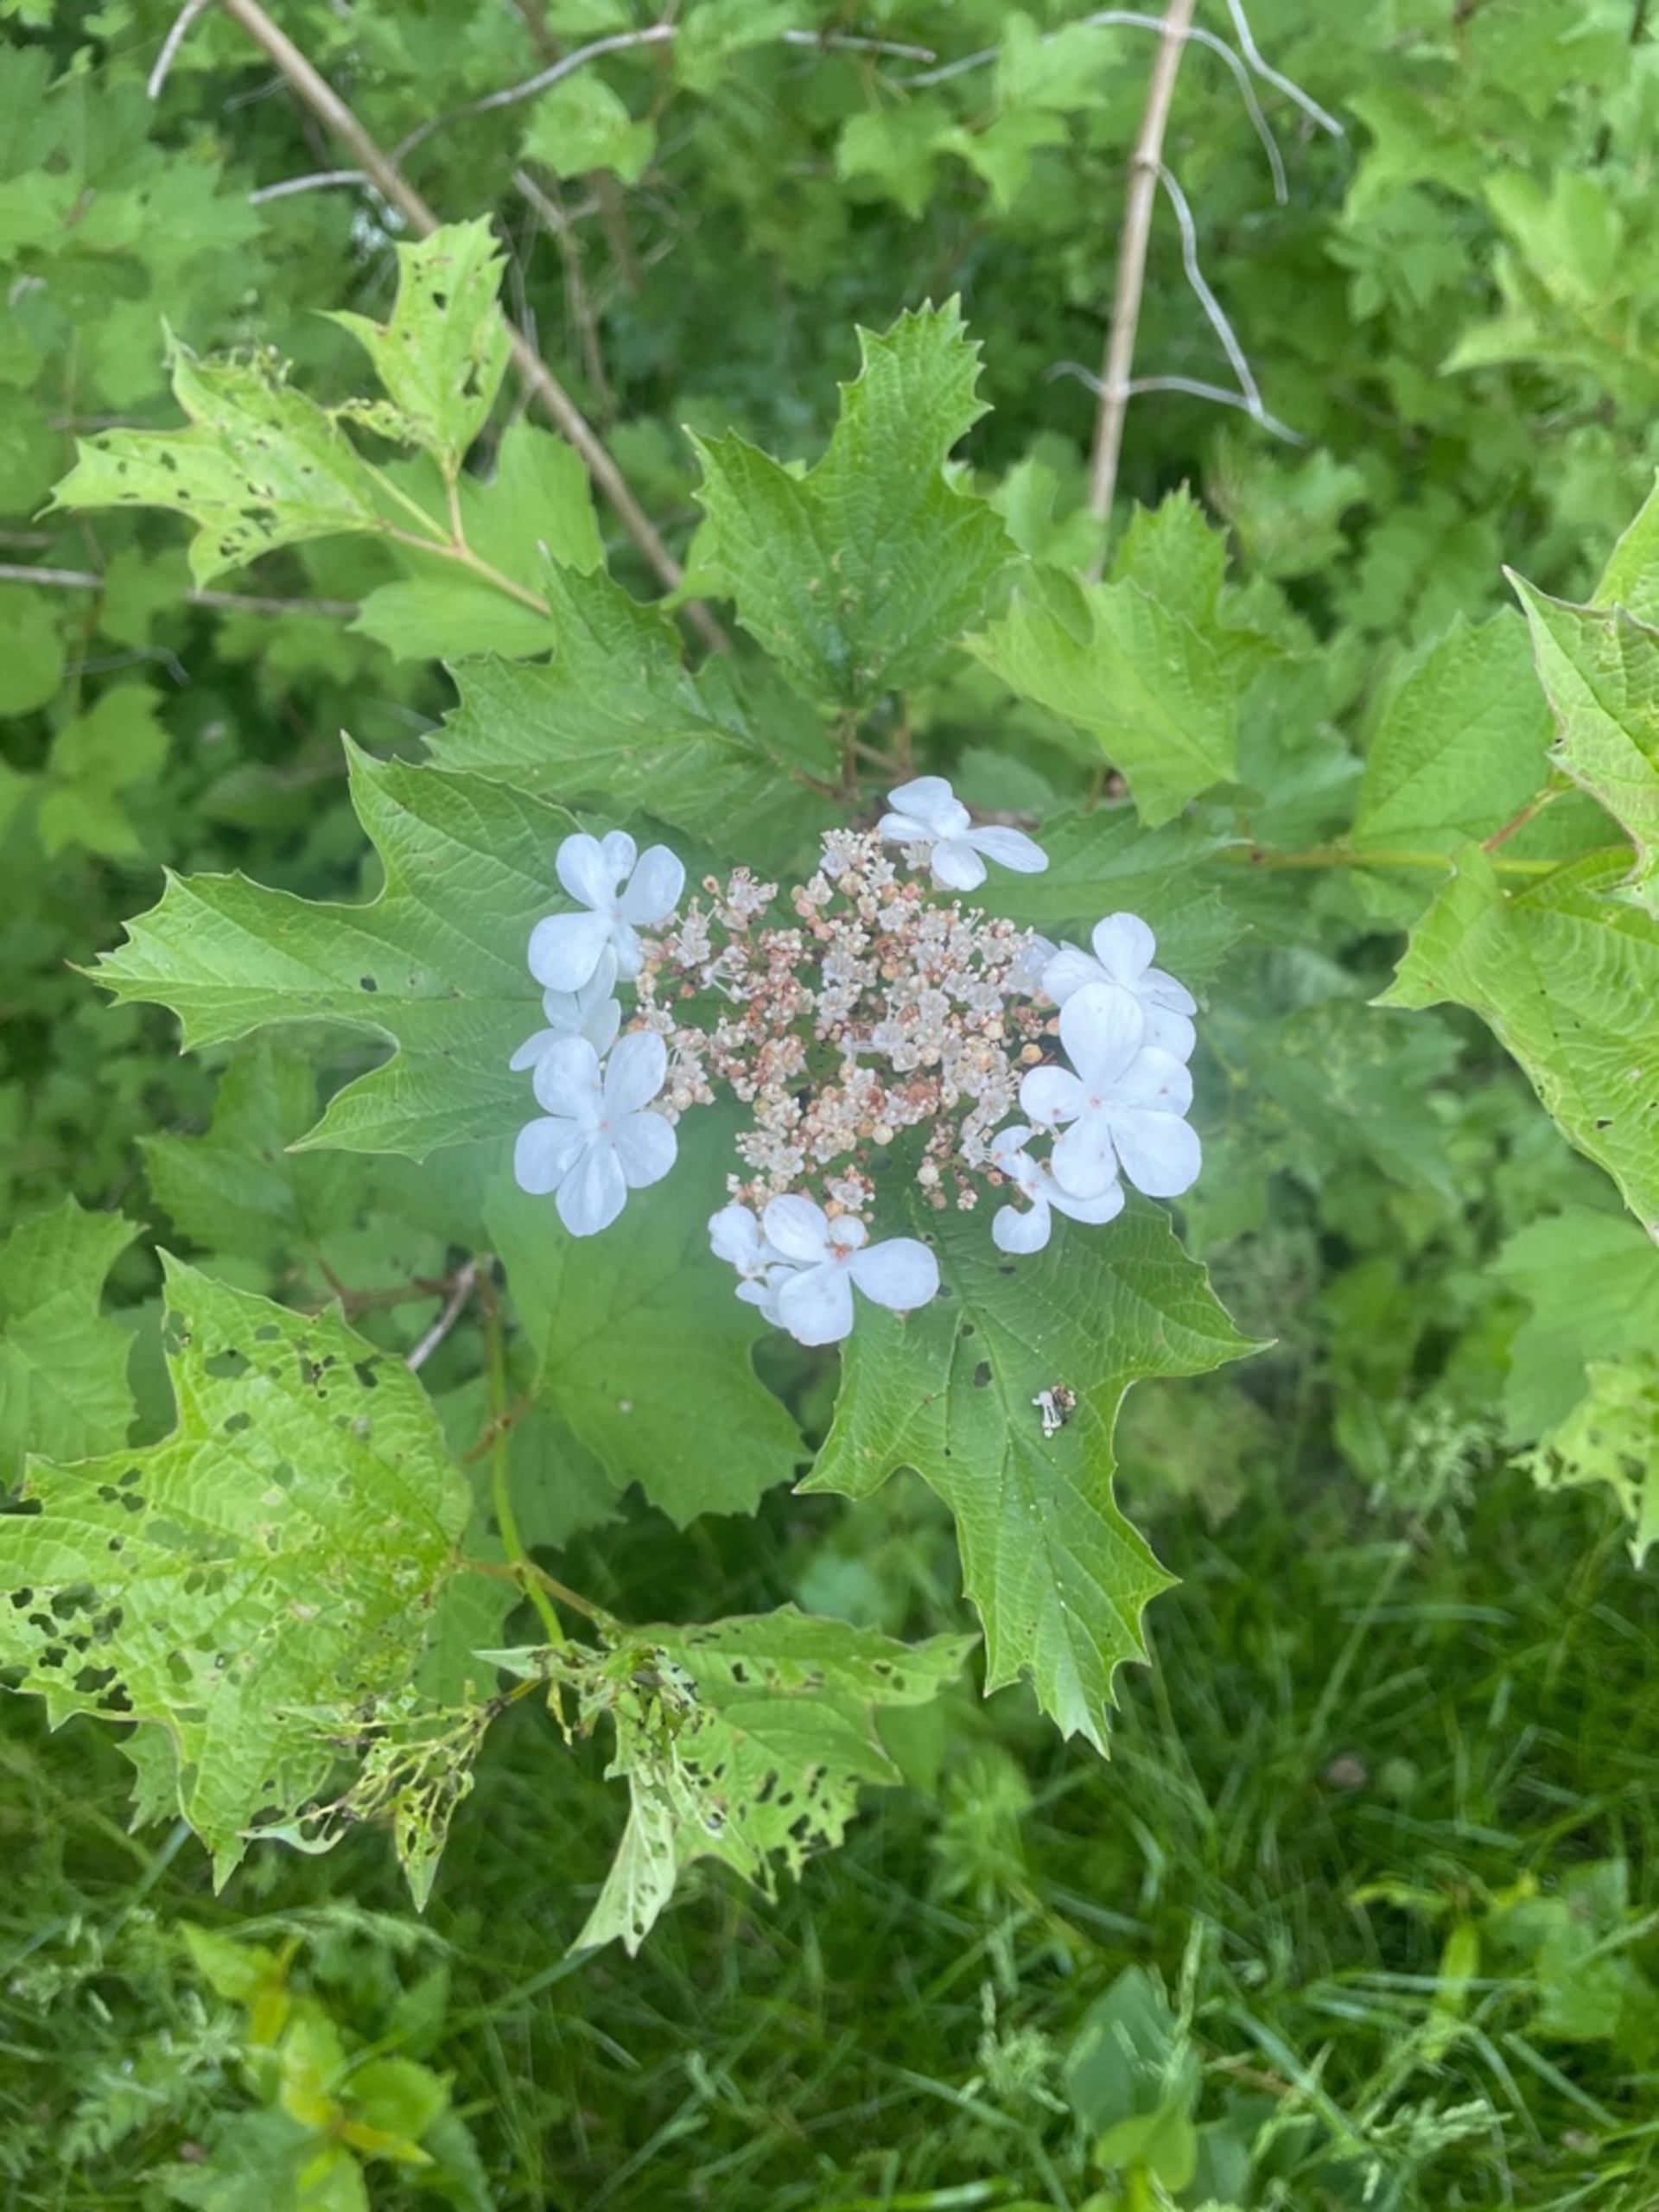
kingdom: Plantae
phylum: Tracheophyta
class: Magnoliopsida
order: Dipsacales
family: Viburnaceae
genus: Viburnum
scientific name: Viburnum opulus
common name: Kvalkved
